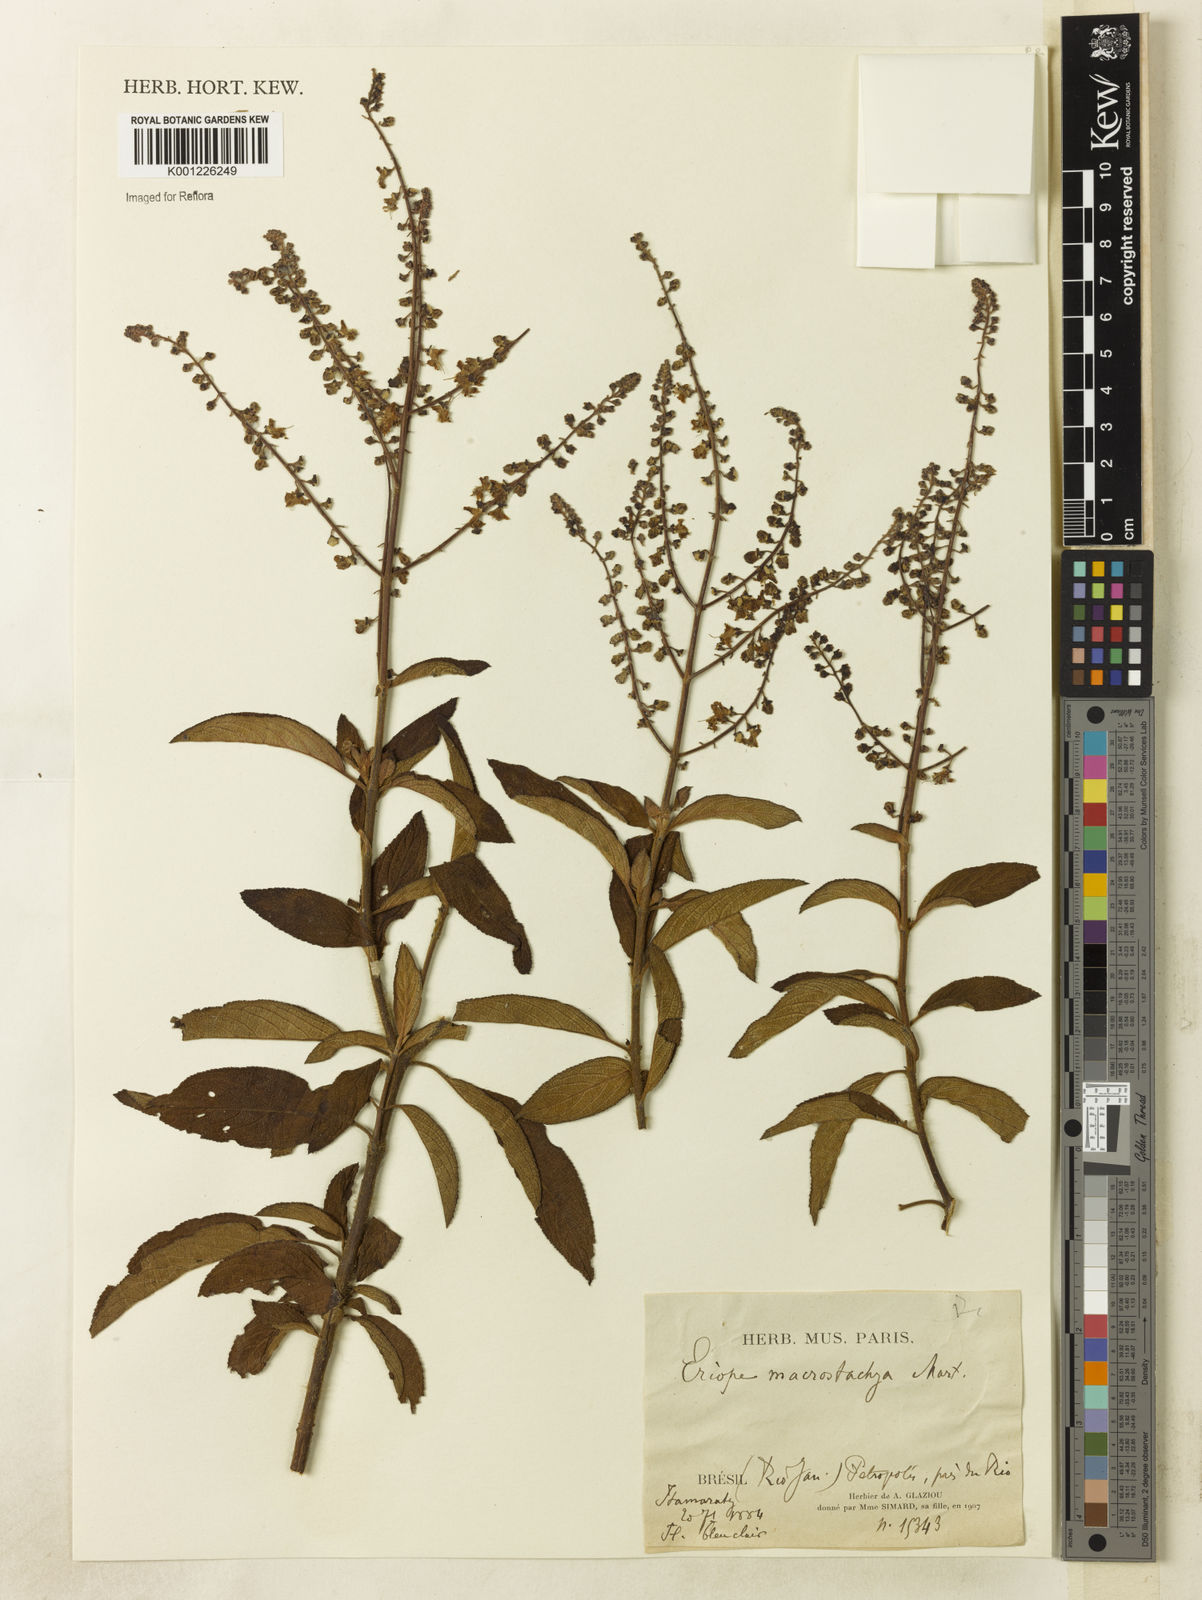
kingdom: Plantae
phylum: Tracheophyta
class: Magnoliopsida
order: Lamiales
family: Lamiaceae
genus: Eriope
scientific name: Eriope macrostachya
